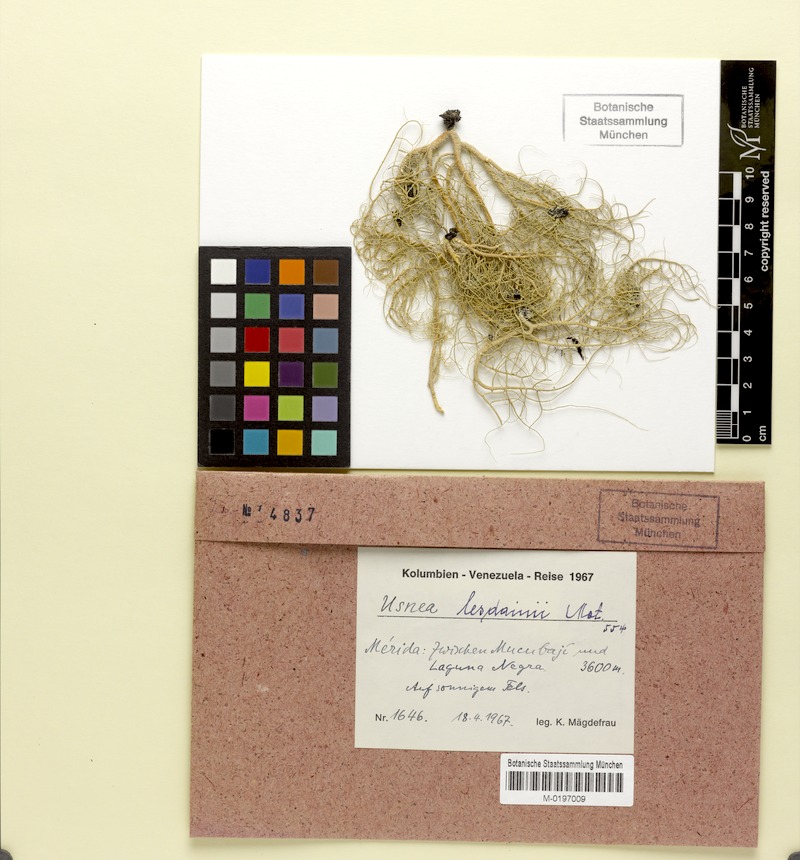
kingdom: Fungi
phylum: Ascomycota
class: Lecanoromycetes
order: Lecanorales
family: Parmeliaceae
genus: Usnea
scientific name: Usnea lesdainii
